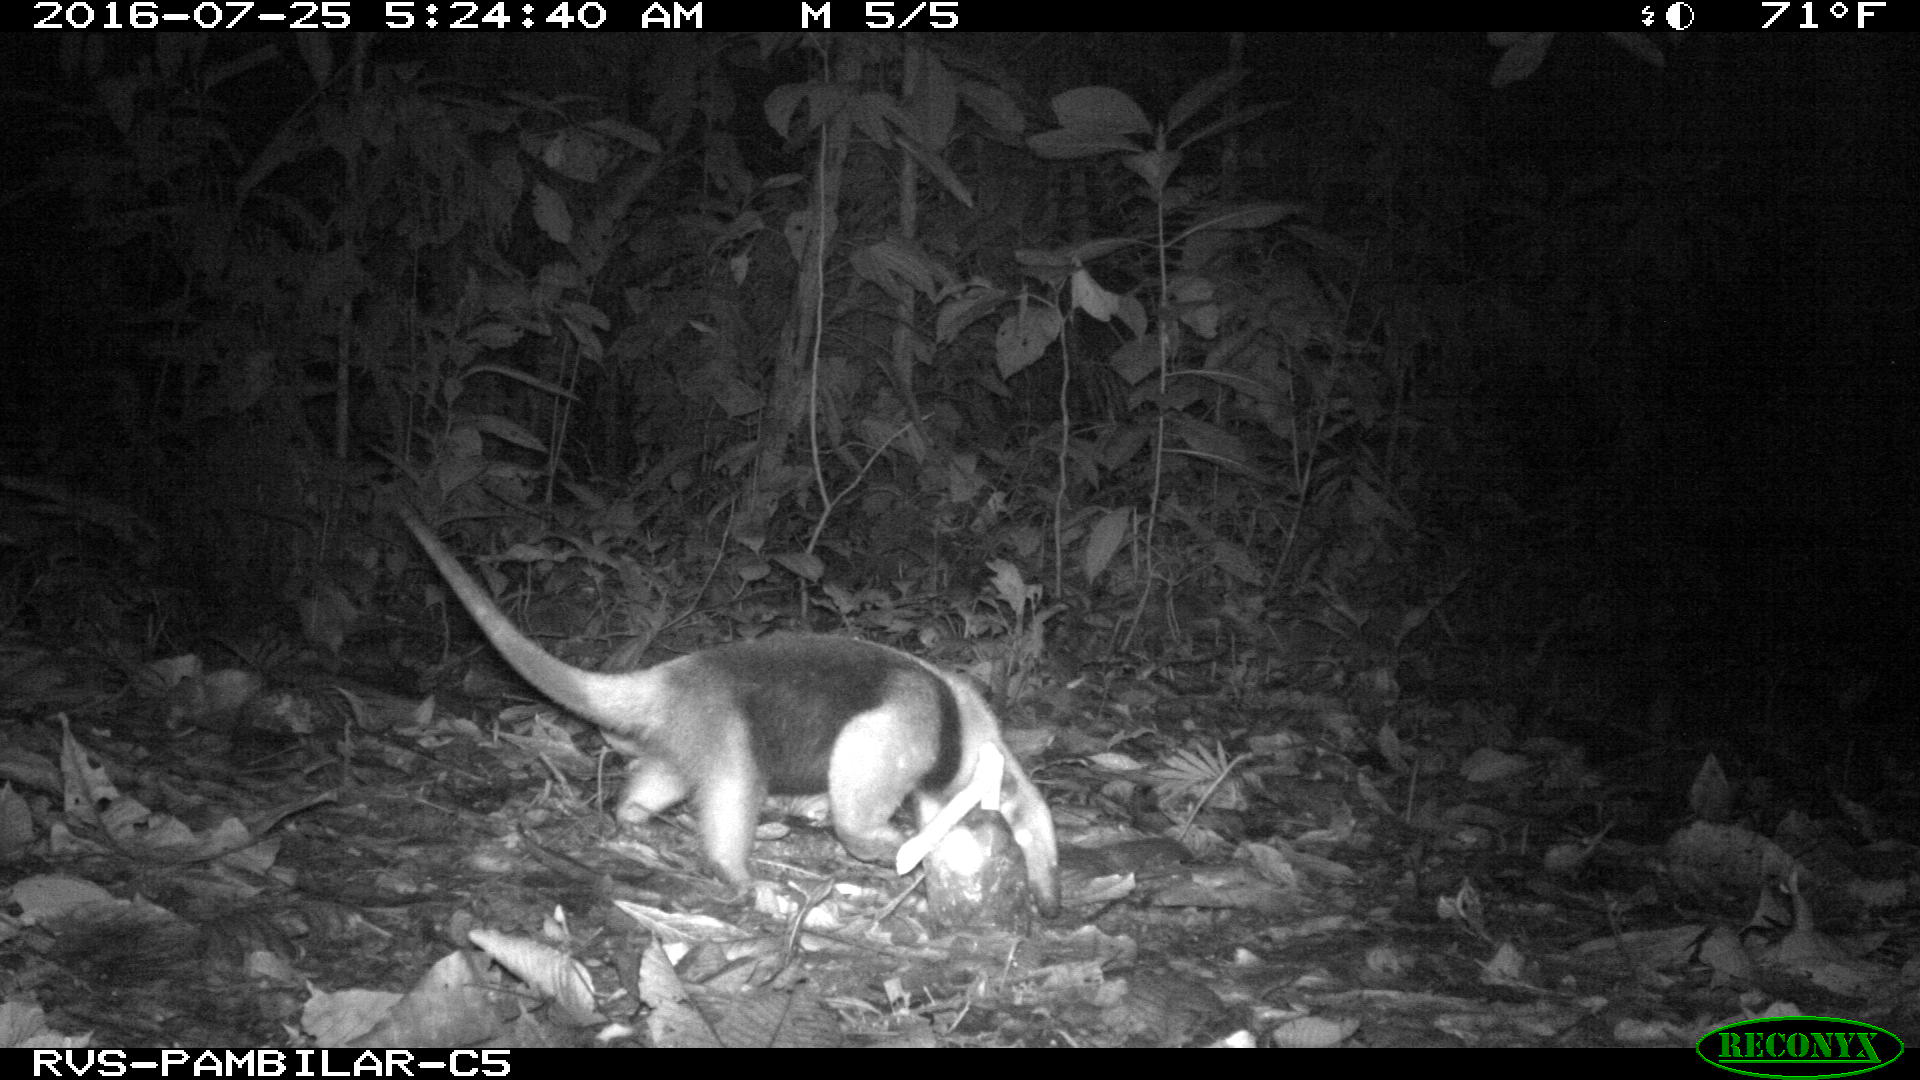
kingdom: Animalia
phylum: Chordata
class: Mammalia
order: Pilosa
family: Myrmecophagidae
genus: Tamandua
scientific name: Tamandua mexicana
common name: Northern tamandua
